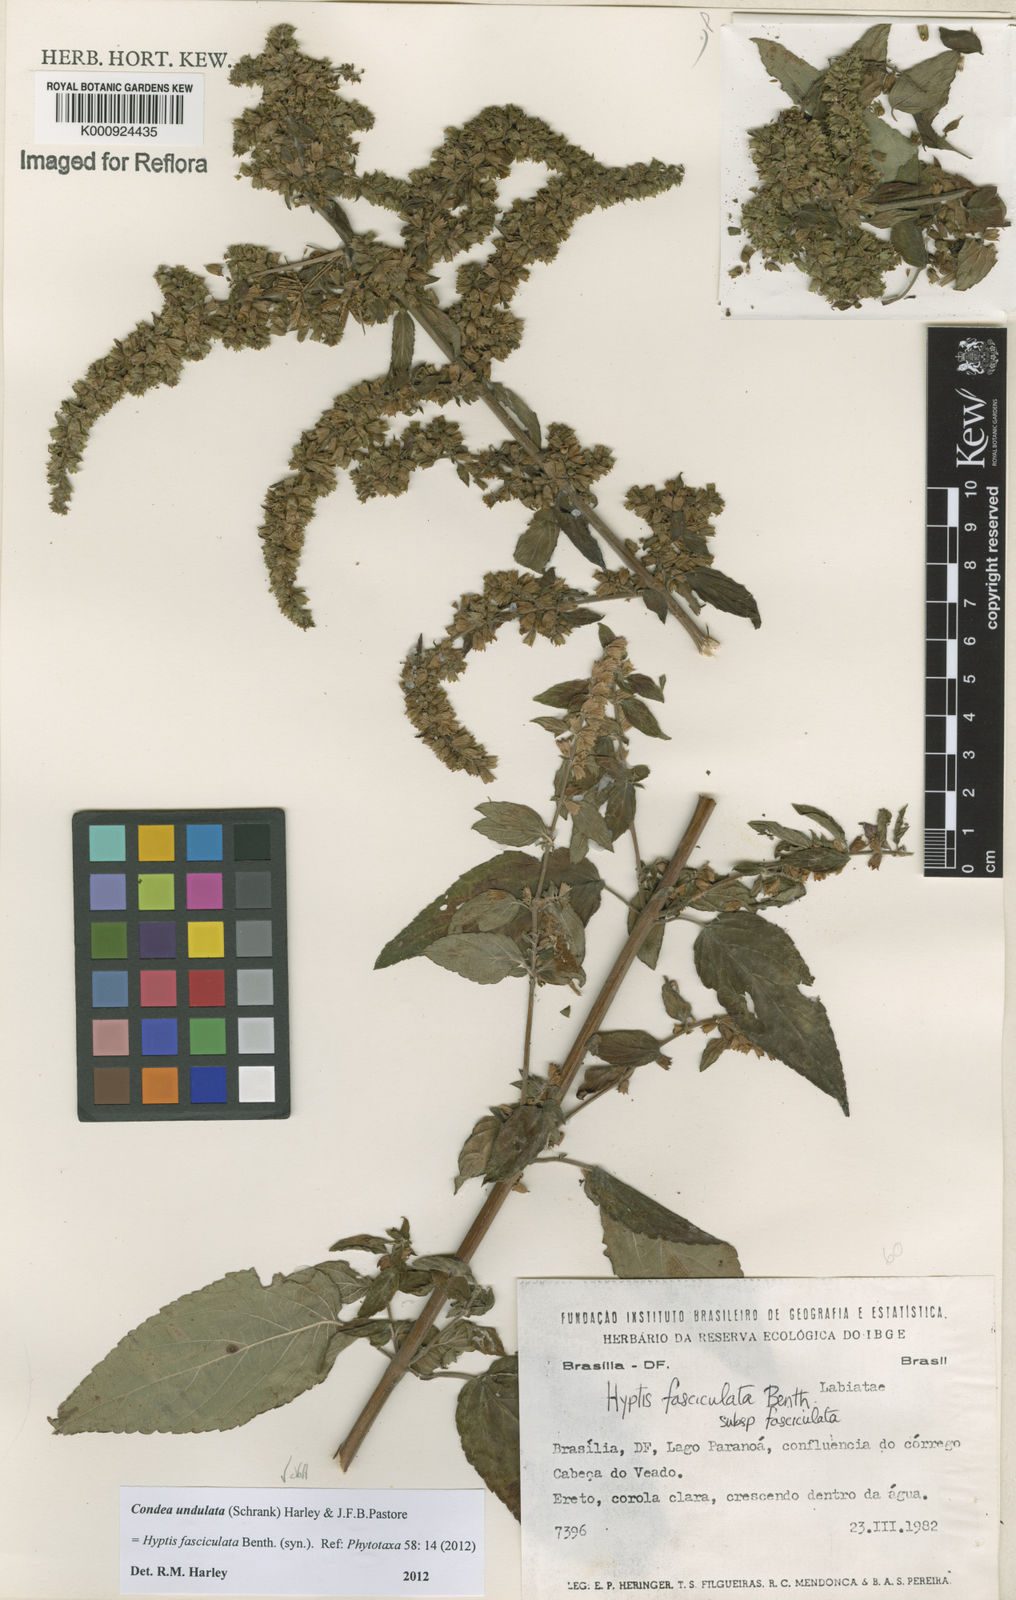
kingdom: Plantae
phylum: Tracheophyta
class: Magnoliopsida
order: Lamiales
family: Lamiaceae
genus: Condea
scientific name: Condea undulata
